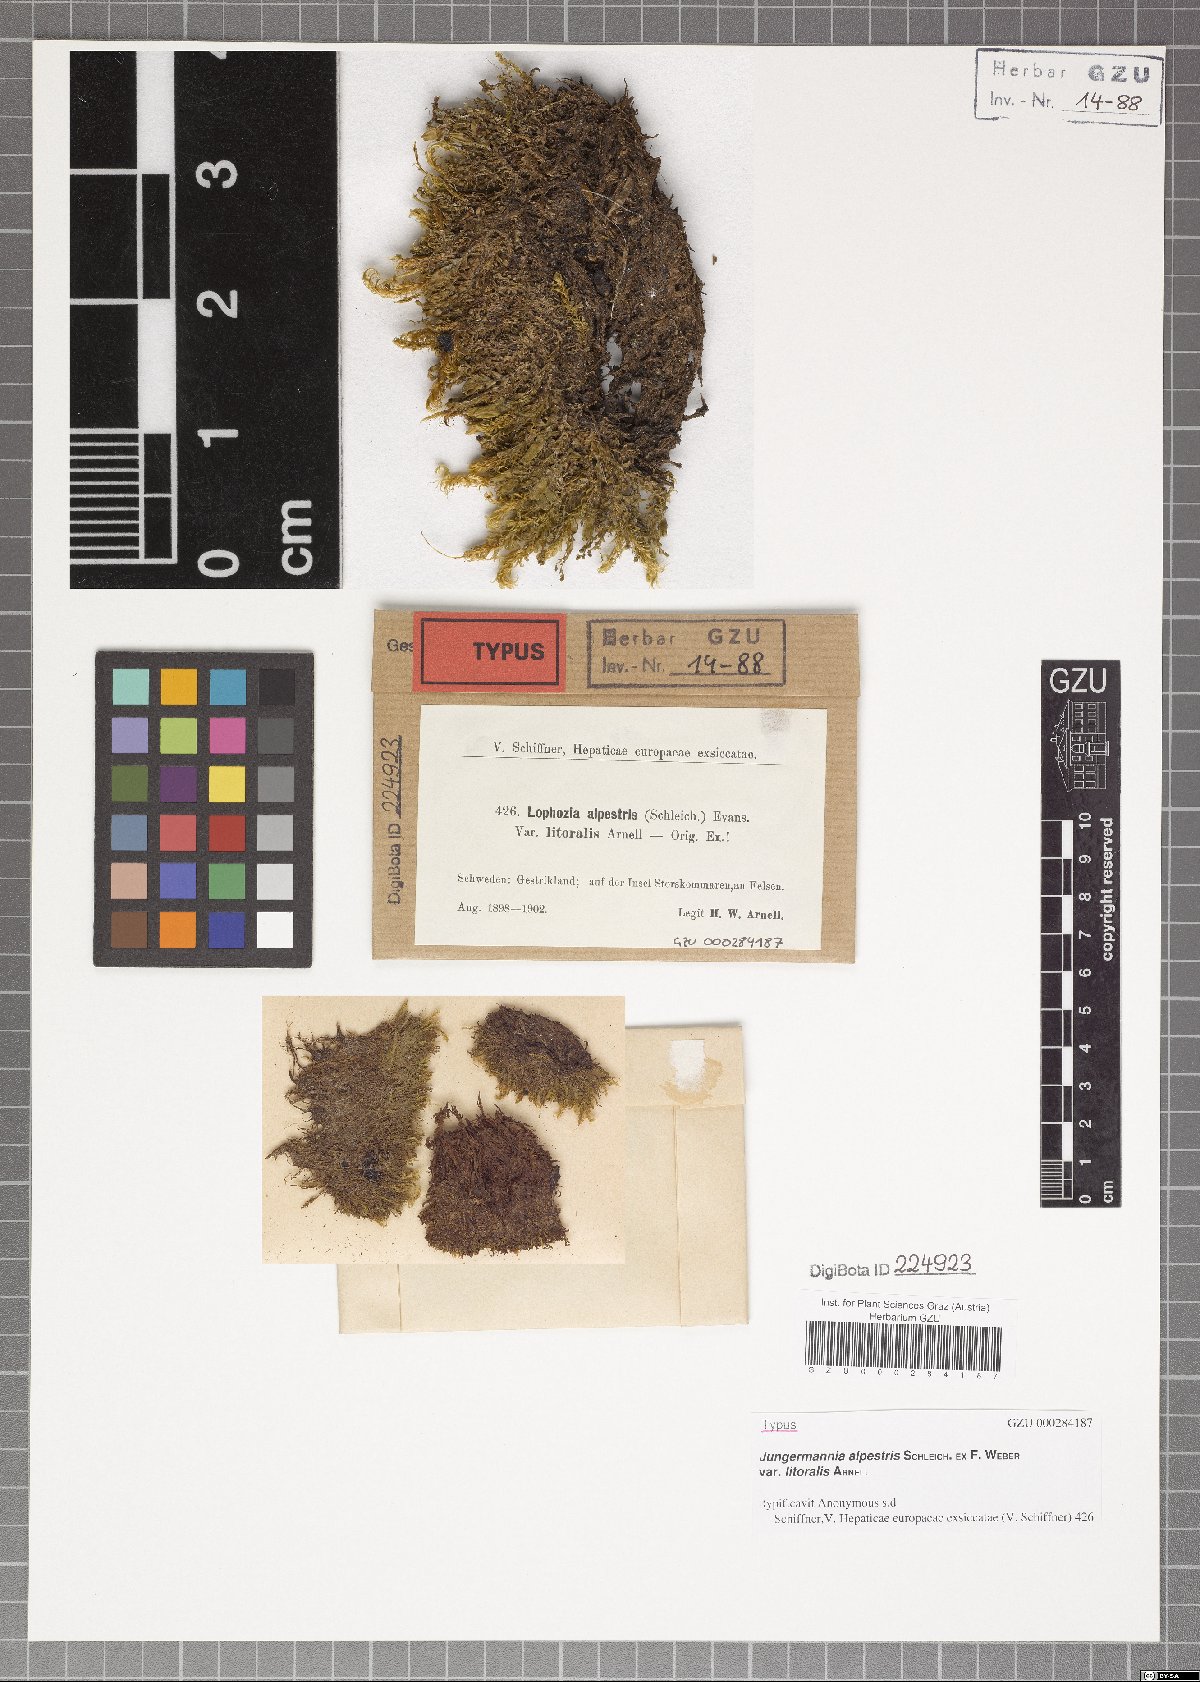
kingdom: Plantae
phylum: Marchantiophyta
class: Jungermanniopsida
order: Jungermanniales
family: Lophoziaceae
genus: Lophozia
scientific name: Lophozia wenzelii
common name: Wenzel s notchwort
